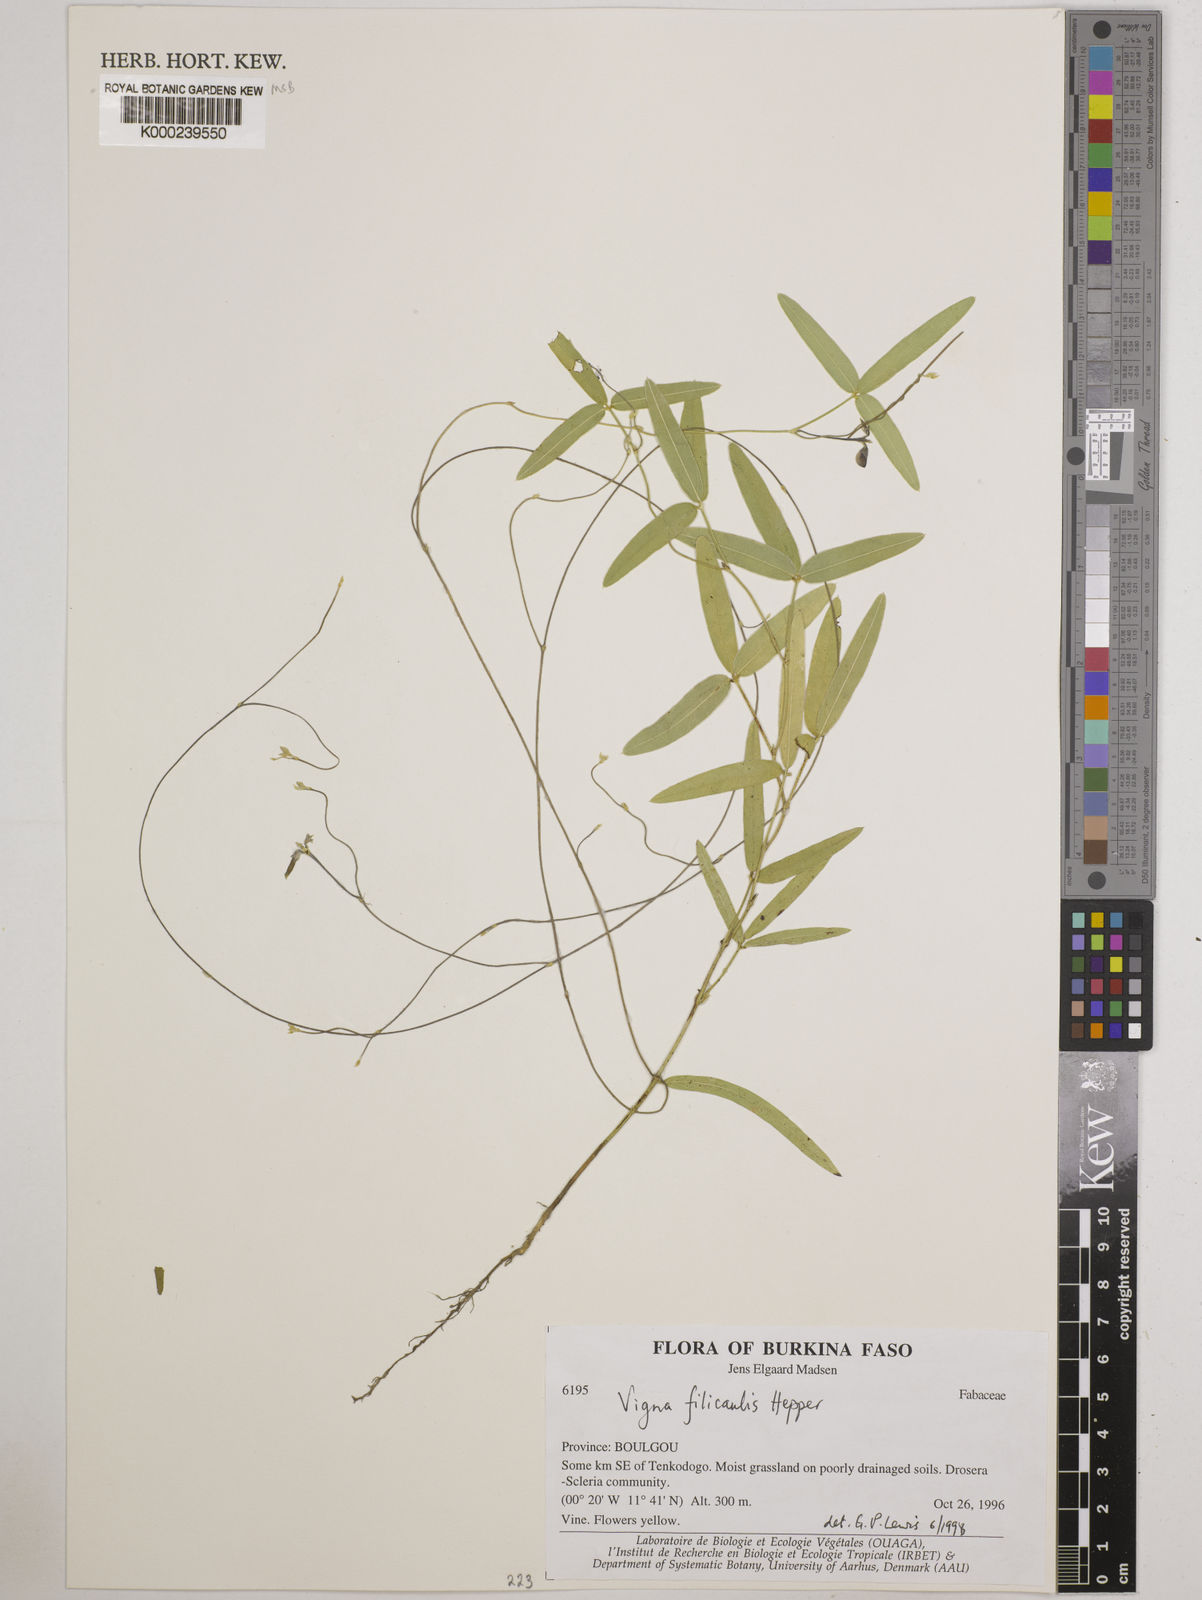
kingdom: Plantae
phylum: Tracheophyta
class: Magnoliopsida
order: Fabales
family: Fabaceae
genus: Vigna
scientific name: Vigna filicaulis
